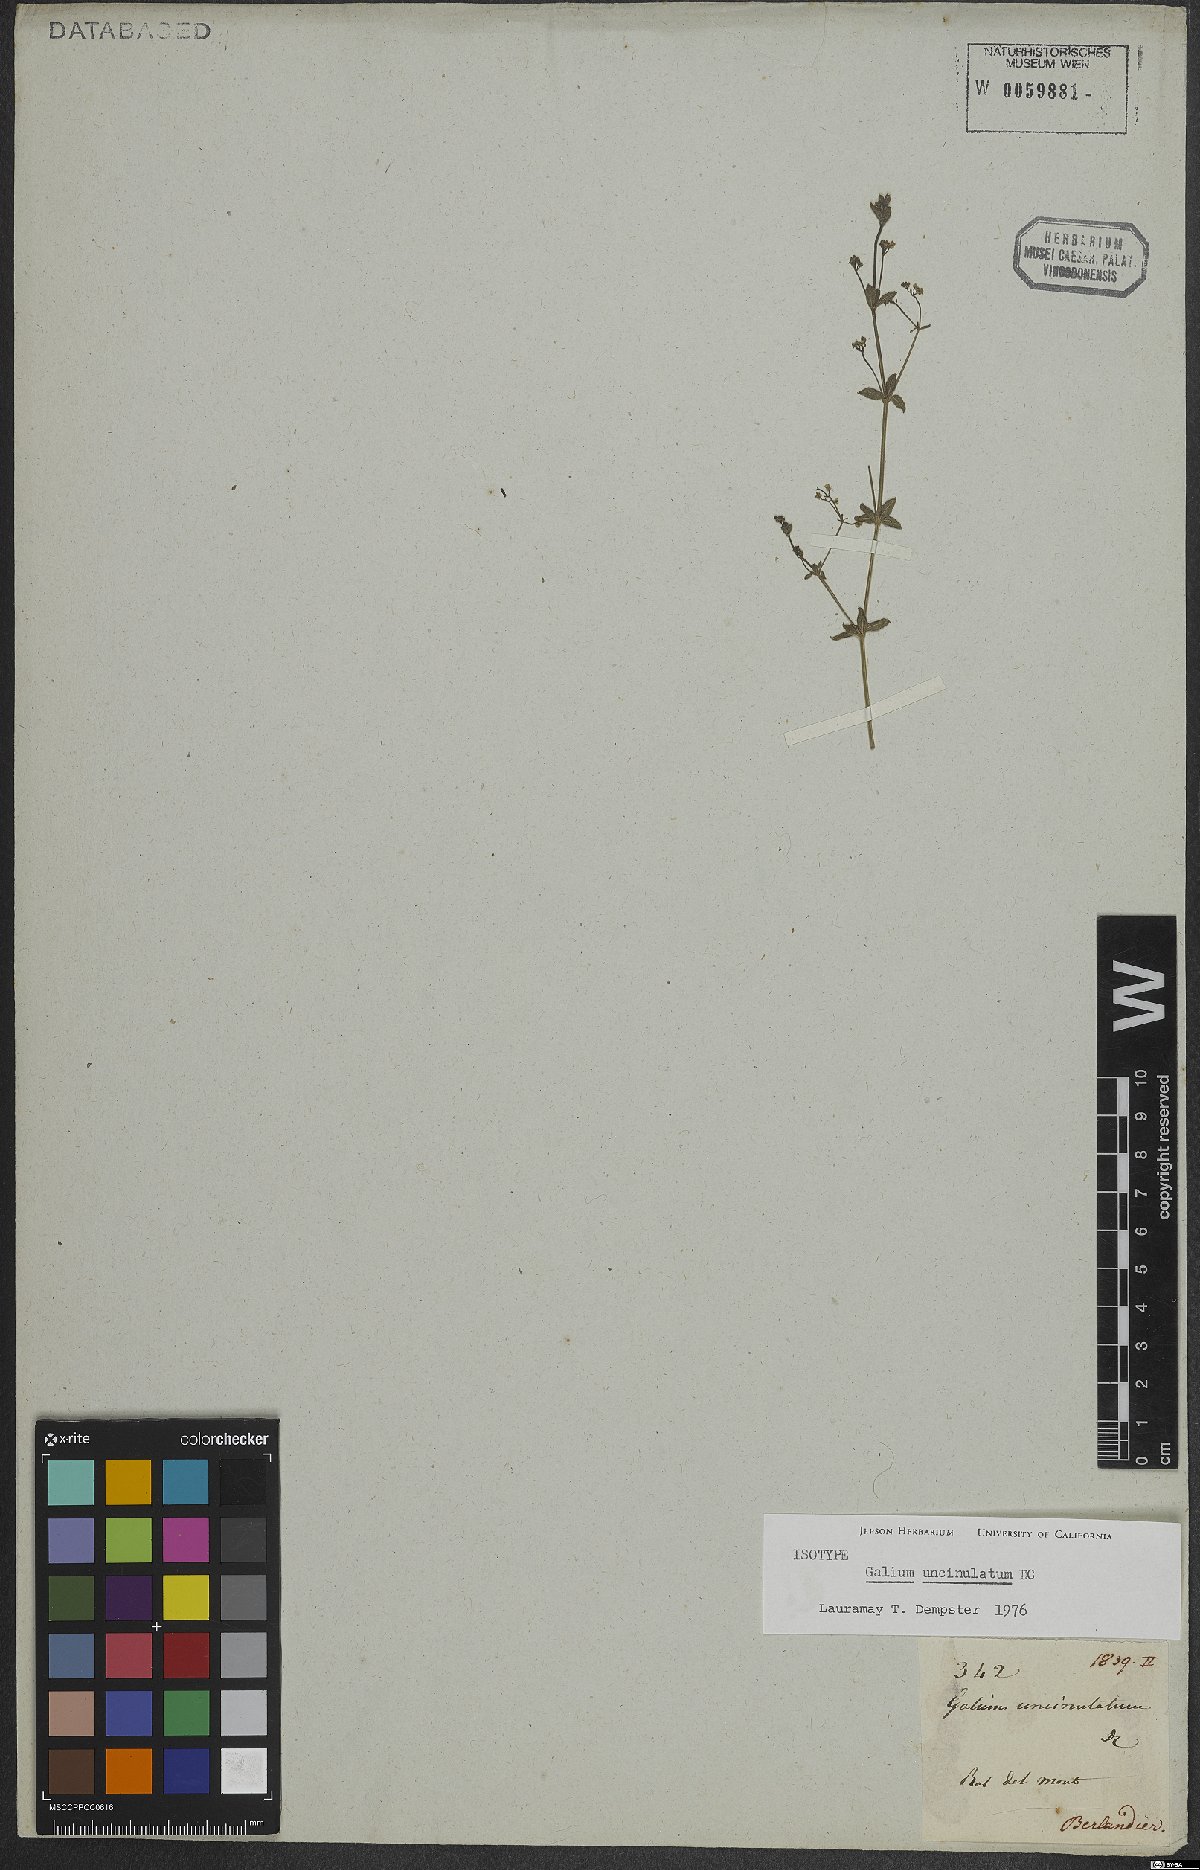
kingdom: Plantae
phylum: Tracheophyta
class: Magnoliopsida
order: Gentianales
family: Rubiaceae
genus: Galium
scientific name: Galium uncinulatum
